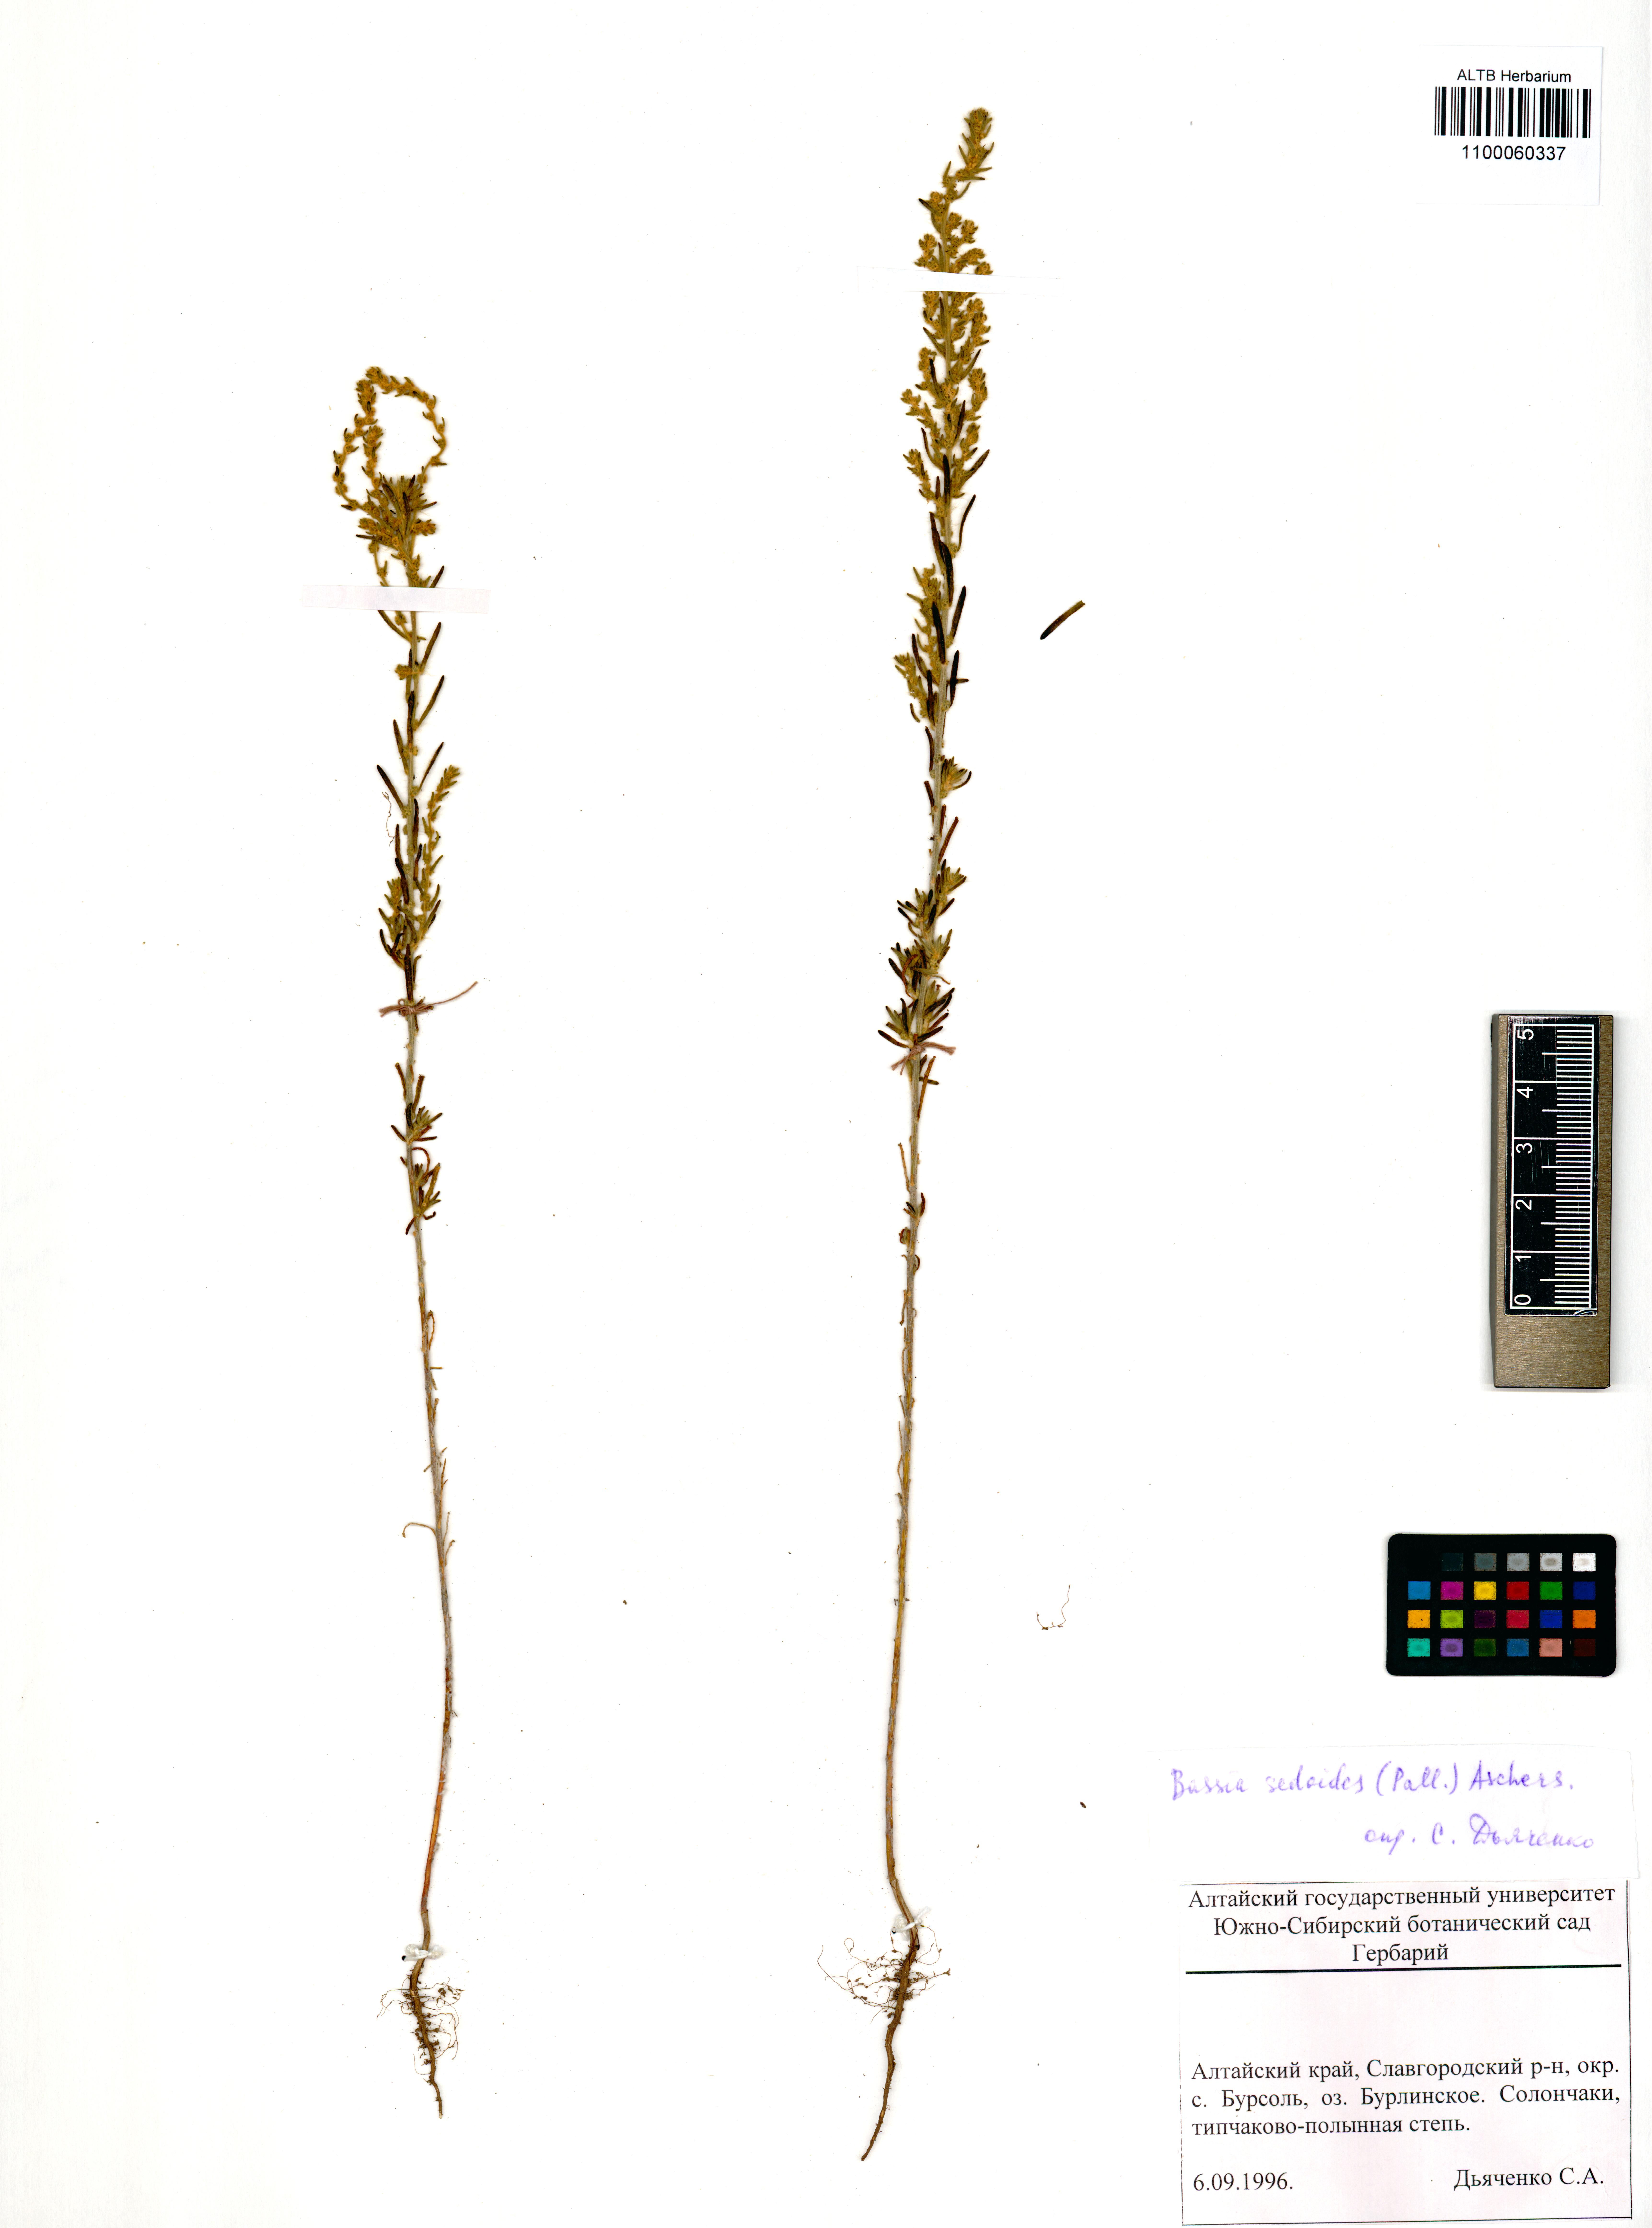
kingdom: Plantae
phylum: Tracheophyta
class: Magnoliopsida
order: Caryophyllales
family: Amaranthaceae
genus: Sedobassia
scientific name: Sedobassia sedoides
